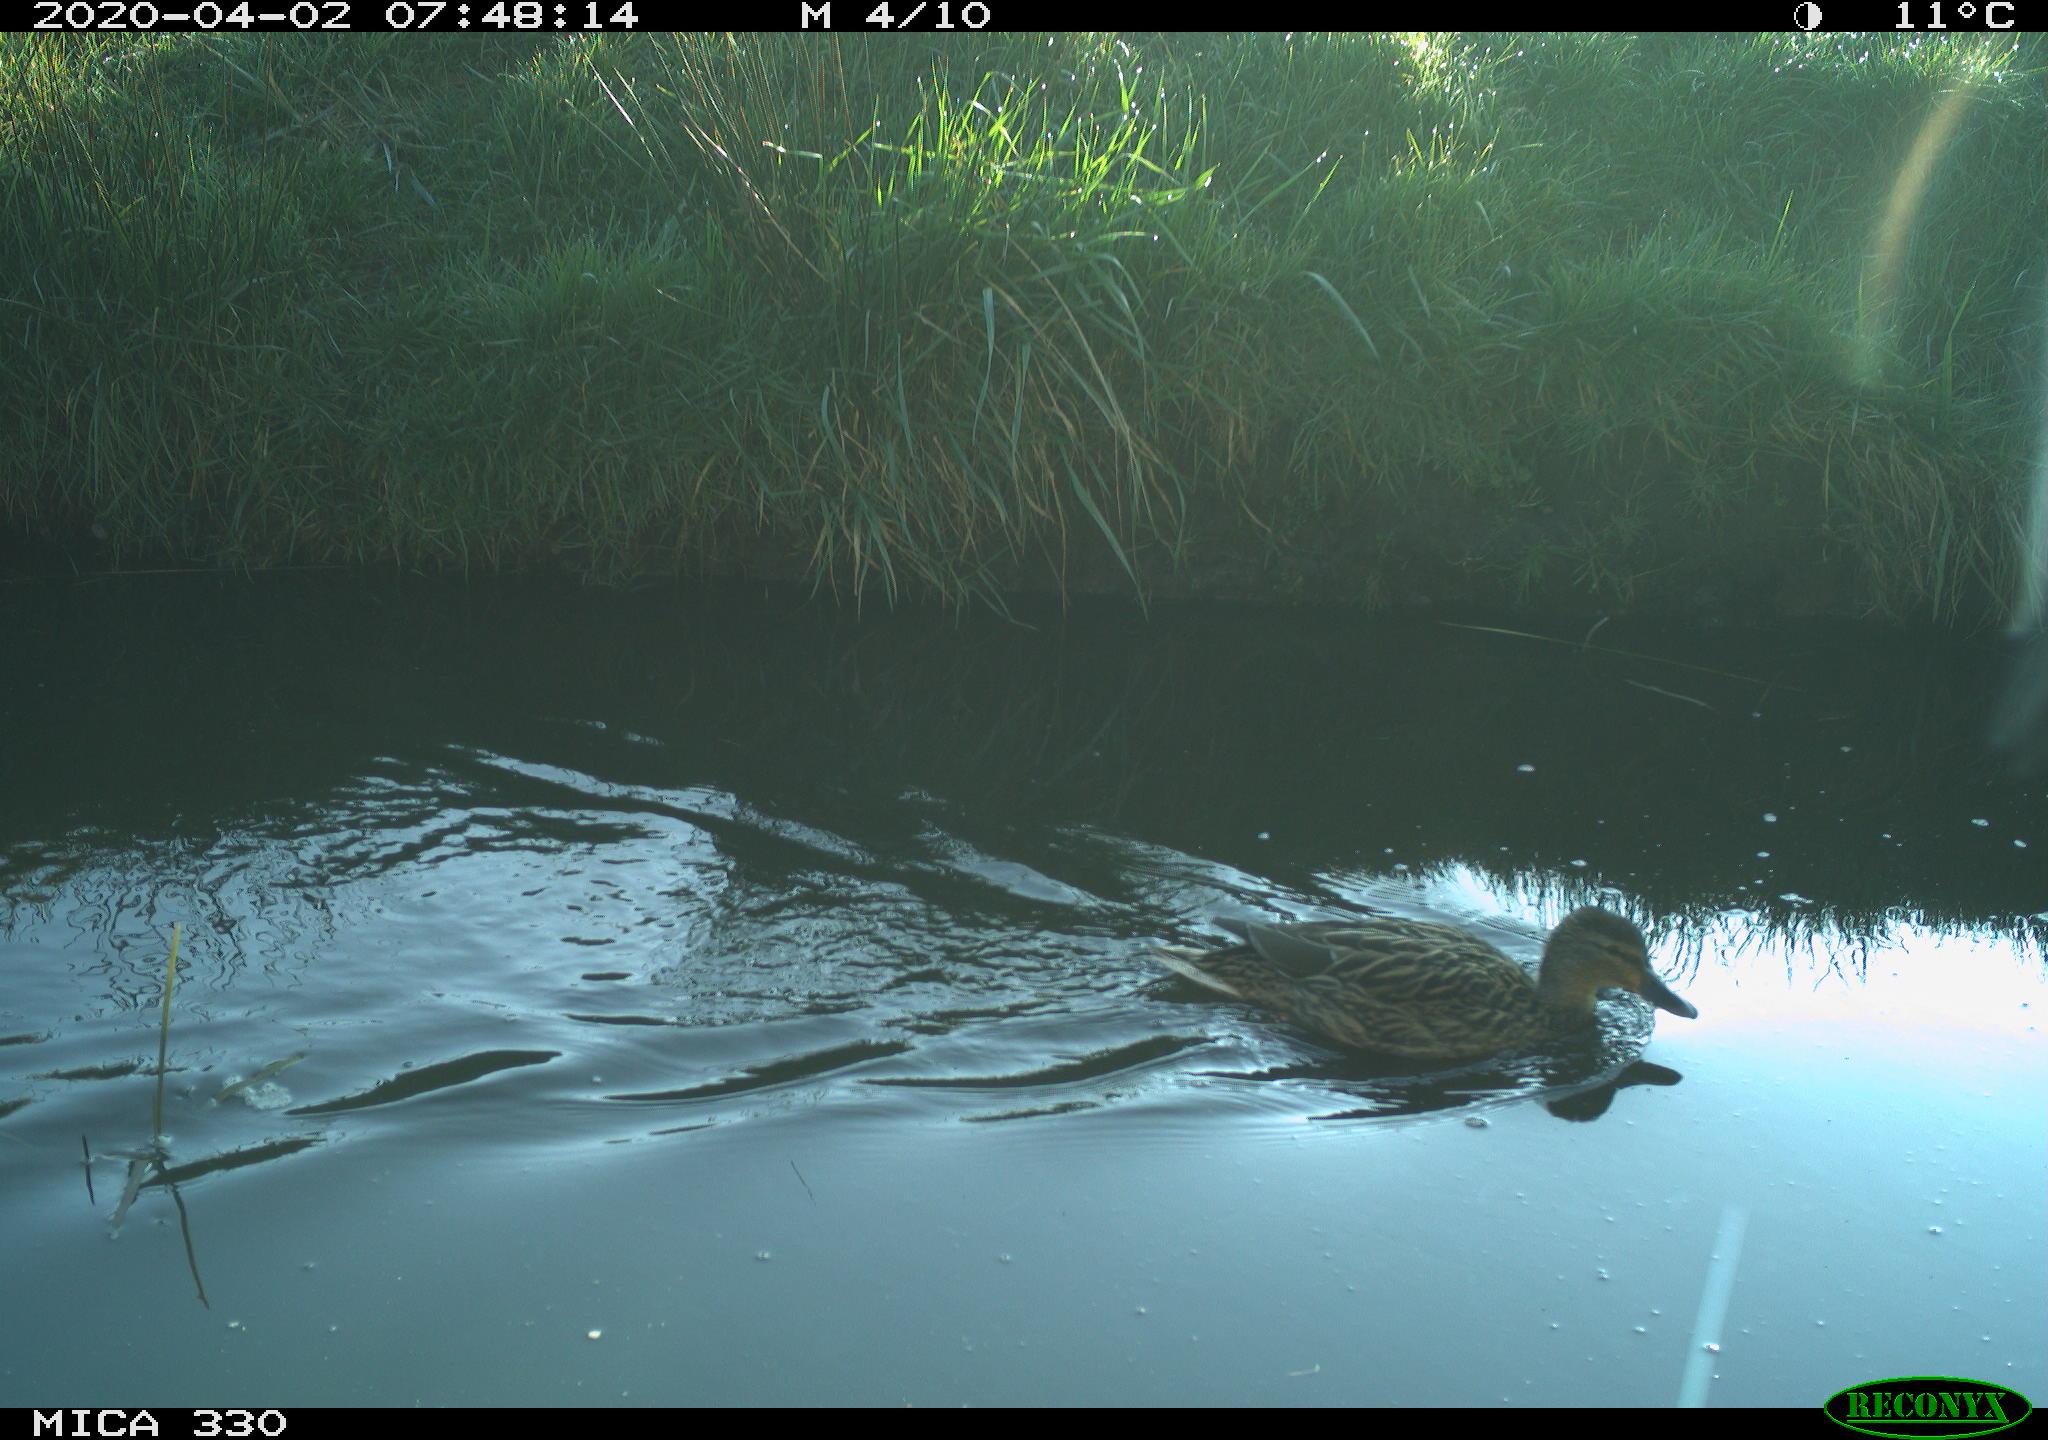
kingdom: Animalia
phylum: Chordata
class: Aves
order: Anseriformes
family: Anatidae
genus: Mareca
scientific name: Mareca strepera
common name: Gadwall
